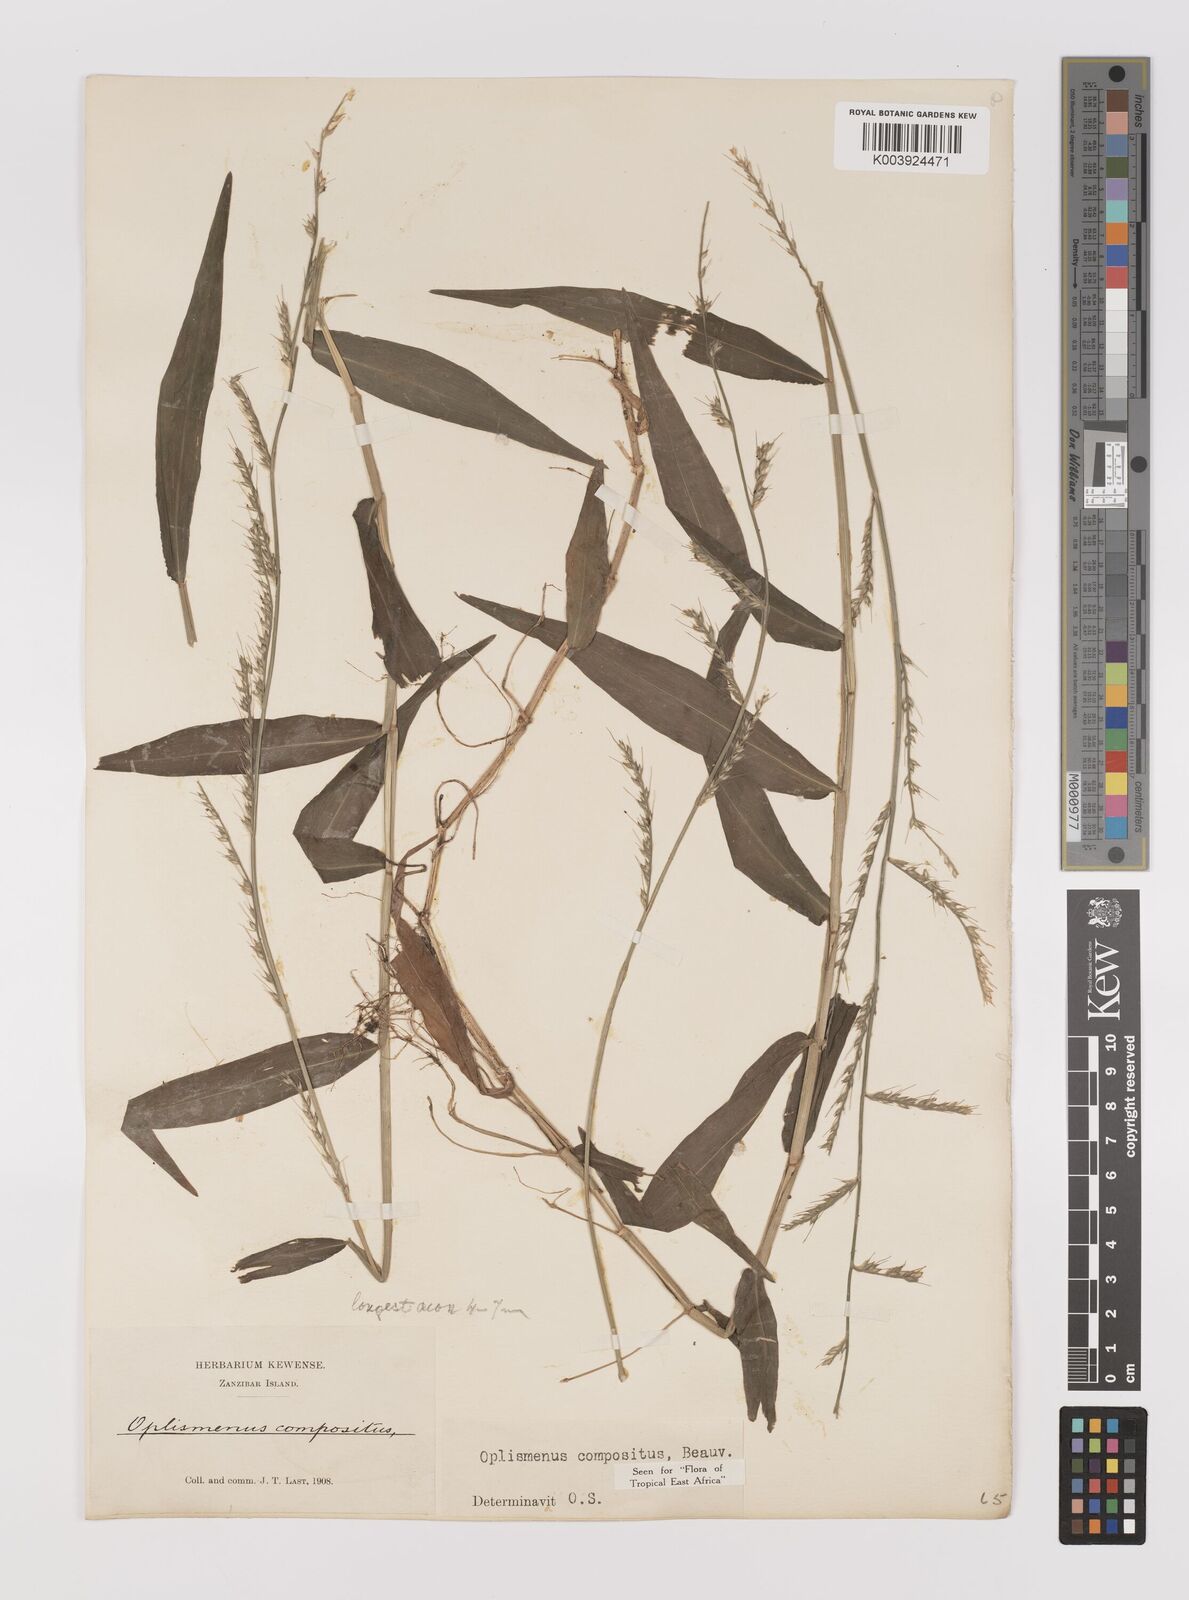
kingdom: Plantae
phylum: Tracheophyta
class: Liliopsida
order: Poales
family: Poaceae
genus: Oplismenus
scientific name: Oplismenus compositus
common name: Running mountain grass
